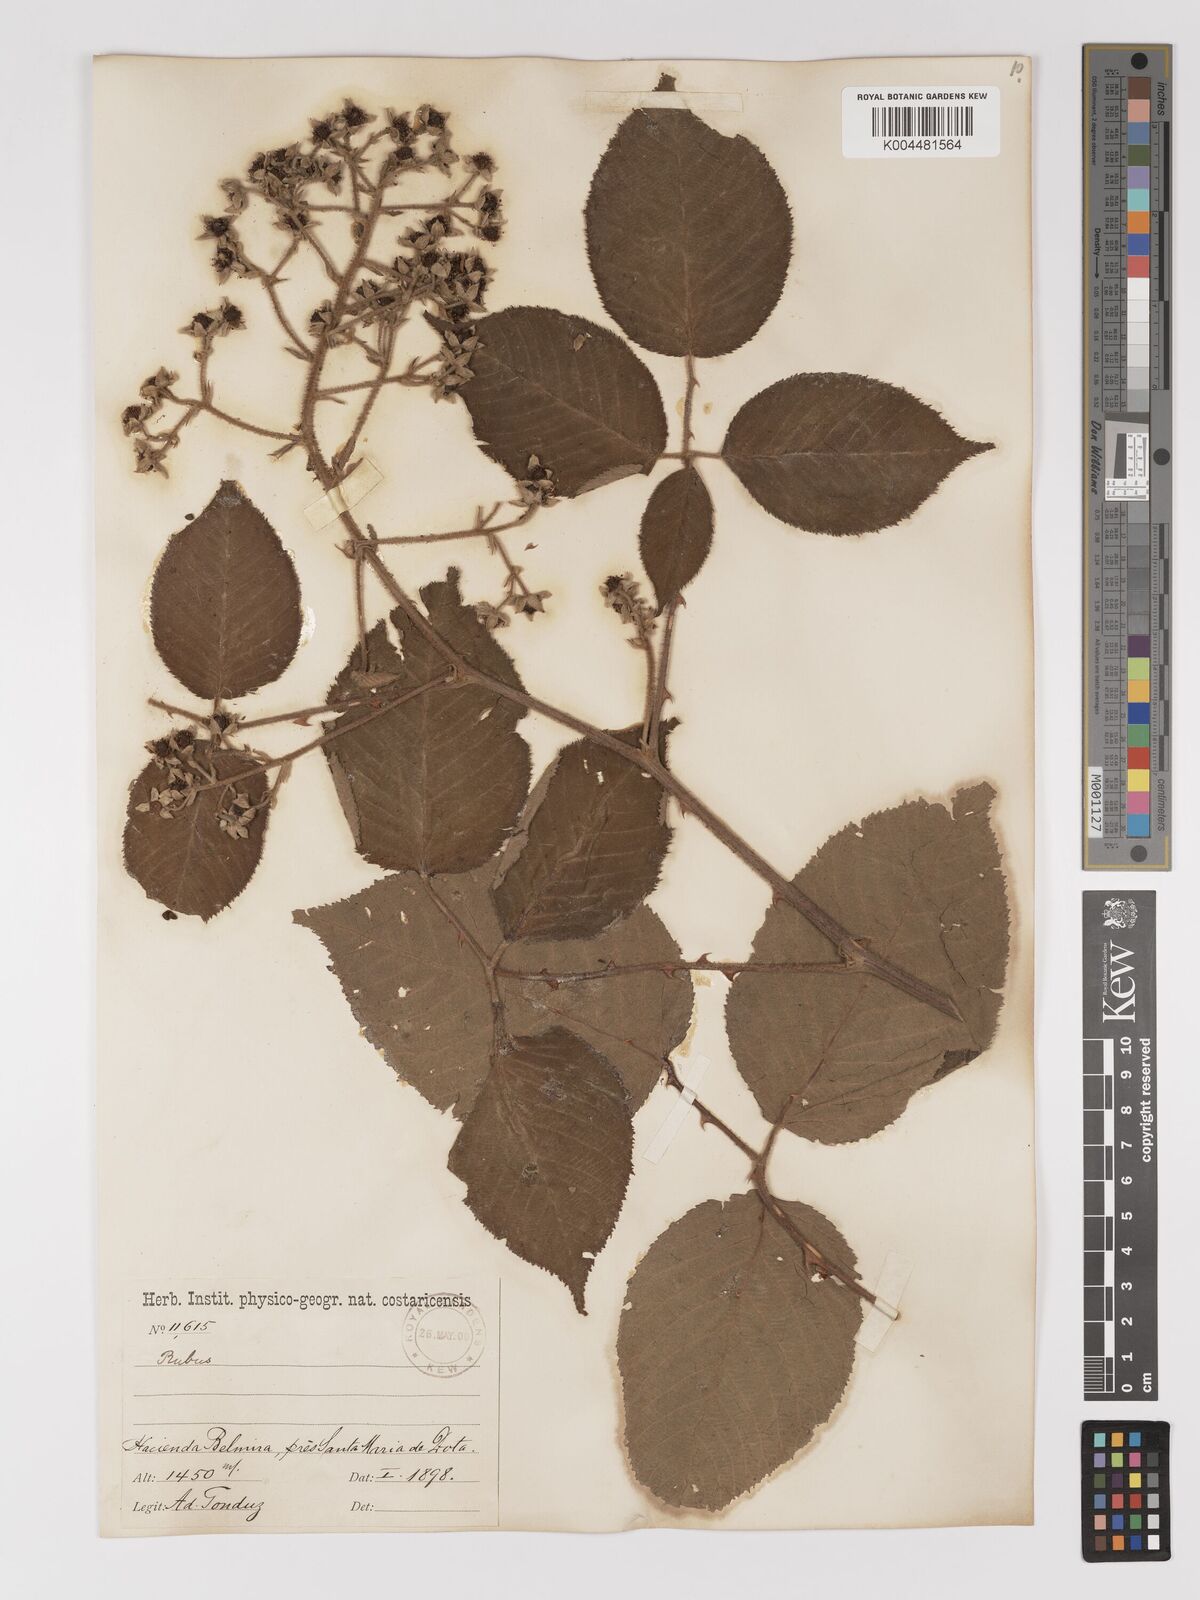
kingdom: Plantae
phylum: Tracheophyta
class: Magnoliopsida
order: Rosales
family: Rosaceae
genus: Rubus
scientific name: Rubus costaricanus
